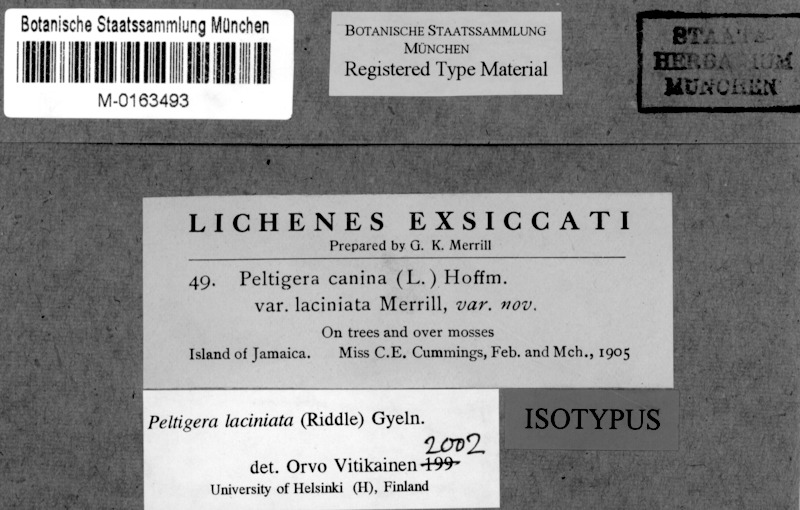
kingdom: Fungi
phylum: Ascomycota
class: Lecanoromycetes
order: Peltigerales
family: Peltigeraceae
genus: Peltigera
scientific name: Peltigera laciniata
